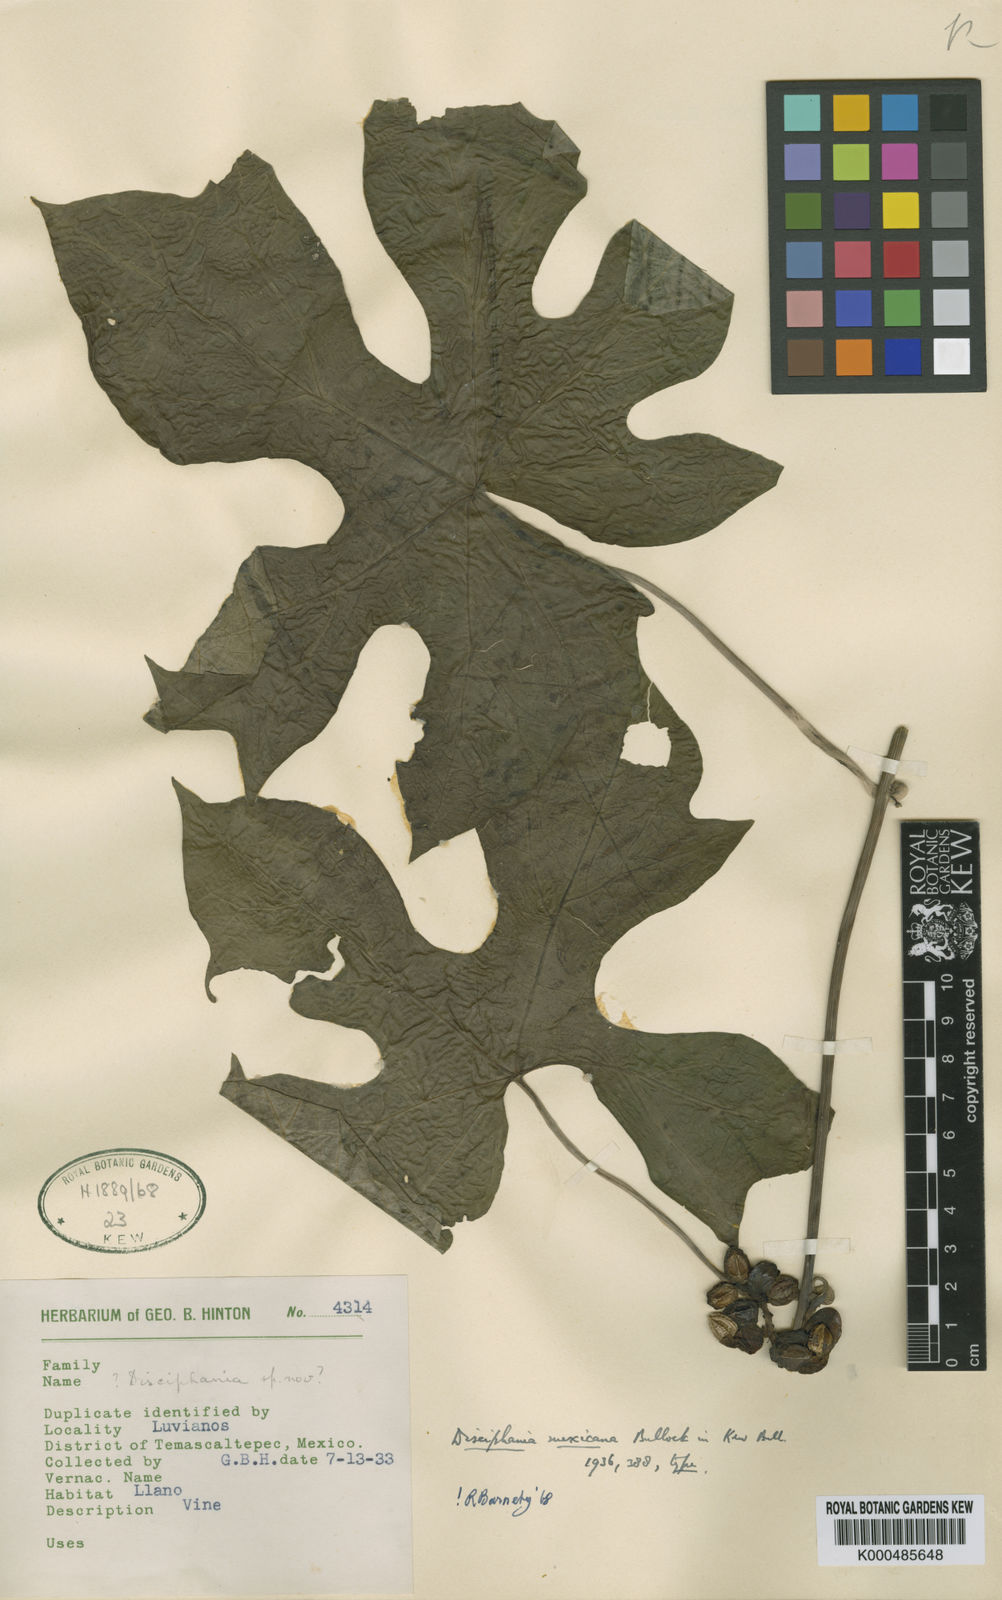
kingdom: Plantae
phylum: Tracheophyta
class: Magnoliopsida
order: Ranunculales
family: Menispermaceae
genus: Disciphania
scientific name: Disciphania mexicana
